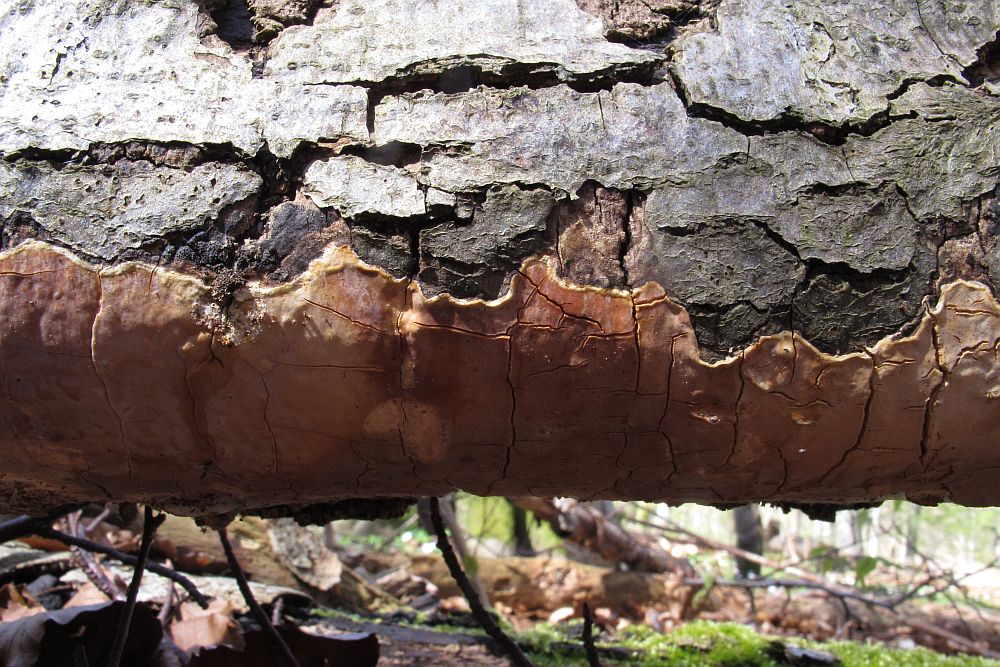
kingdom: Fungi
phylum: Basidiomycota
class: Agaricomycetes
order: Russulales
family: Peniophoraceae
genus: Scytinostroma
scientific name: Scytinostroma hemidichophyticum
